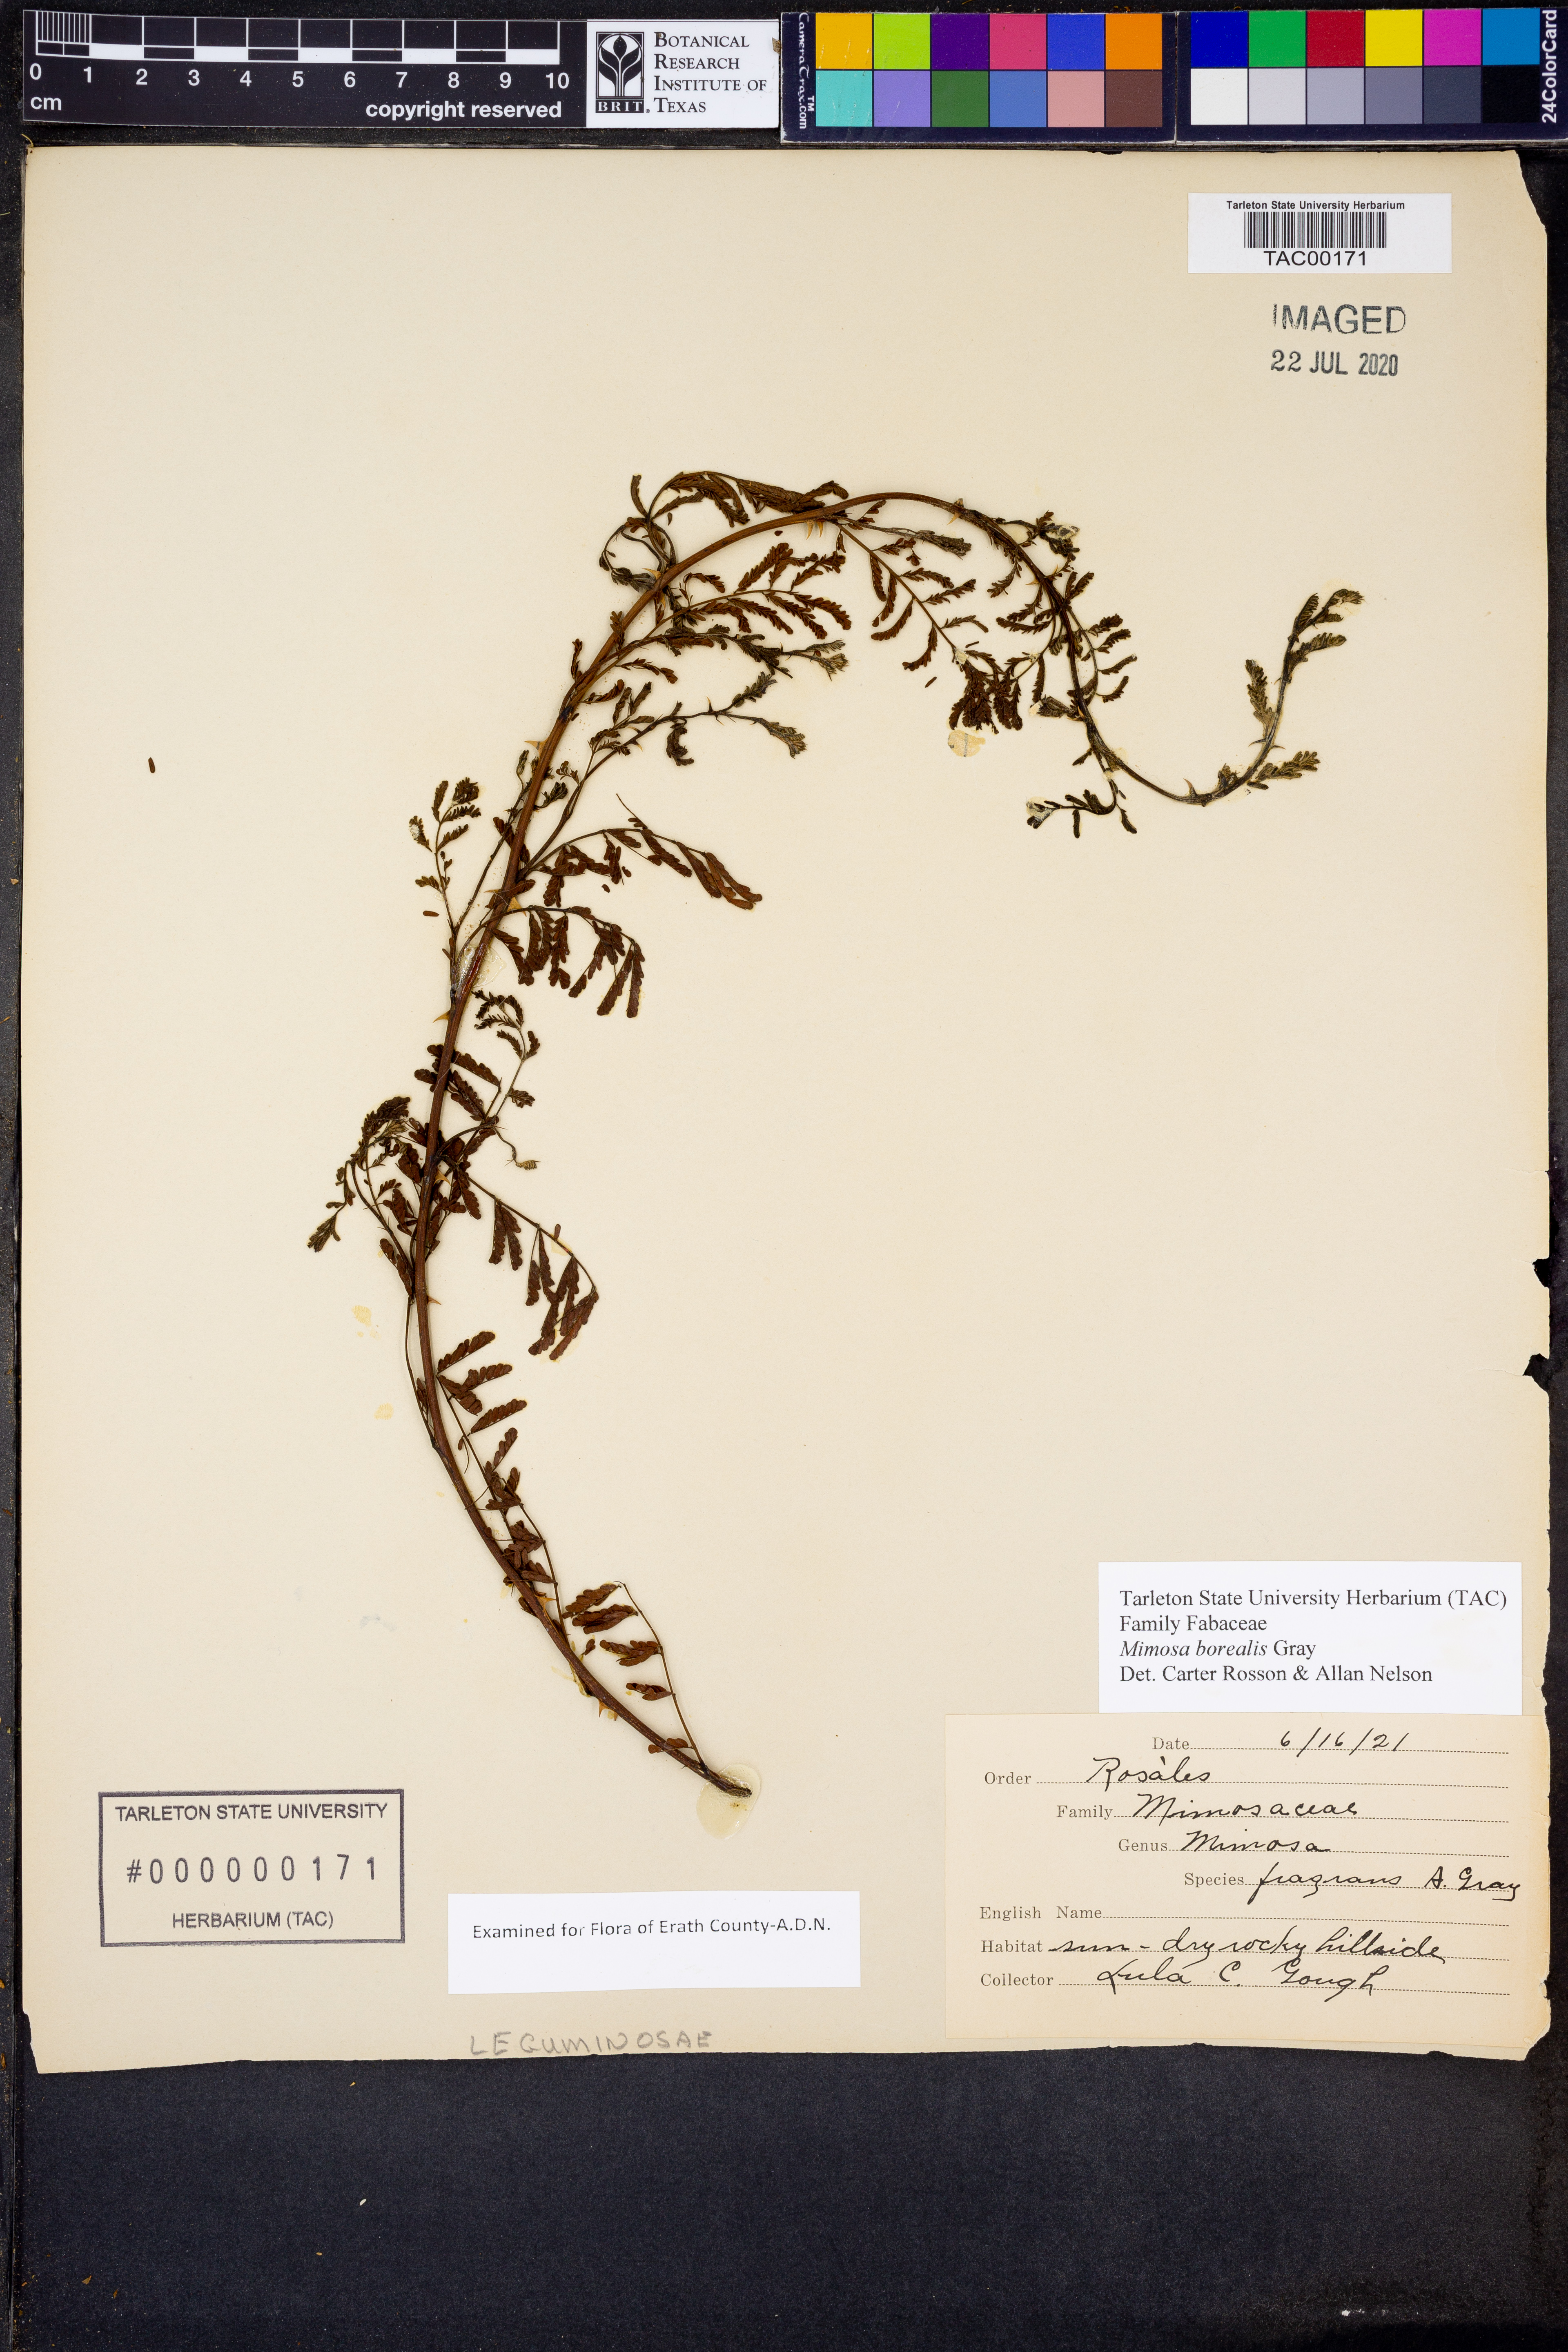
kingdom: Plantae
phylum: Tracheophyta
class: Magnoliopsida
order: Fabales
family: Fabaceae
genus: Mimosa
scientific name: Mimosa borealis
